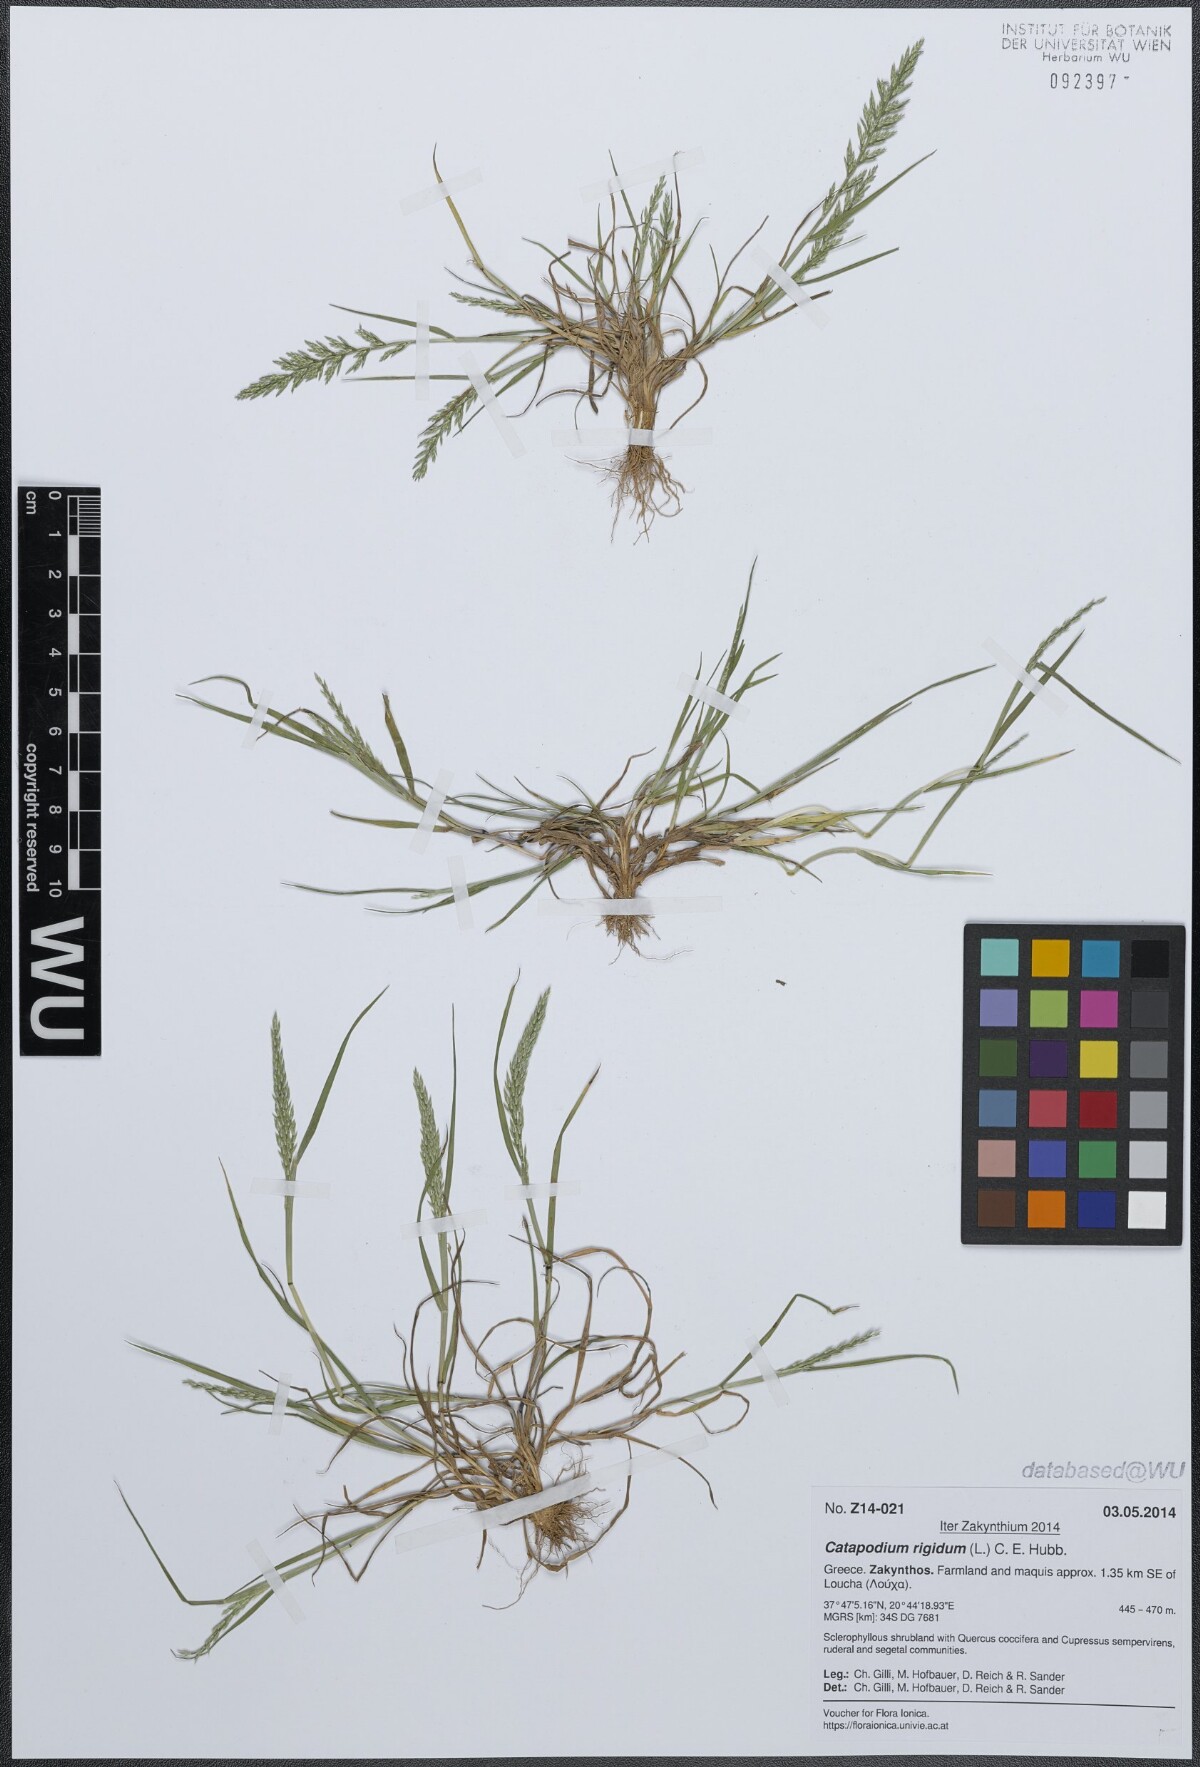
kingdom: Plantae
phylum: Tracheophyta
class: Liliopsida
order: Poales
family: Poaceae
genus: Catapodium
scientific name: Catapodium rigidum
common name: Fern-grass
